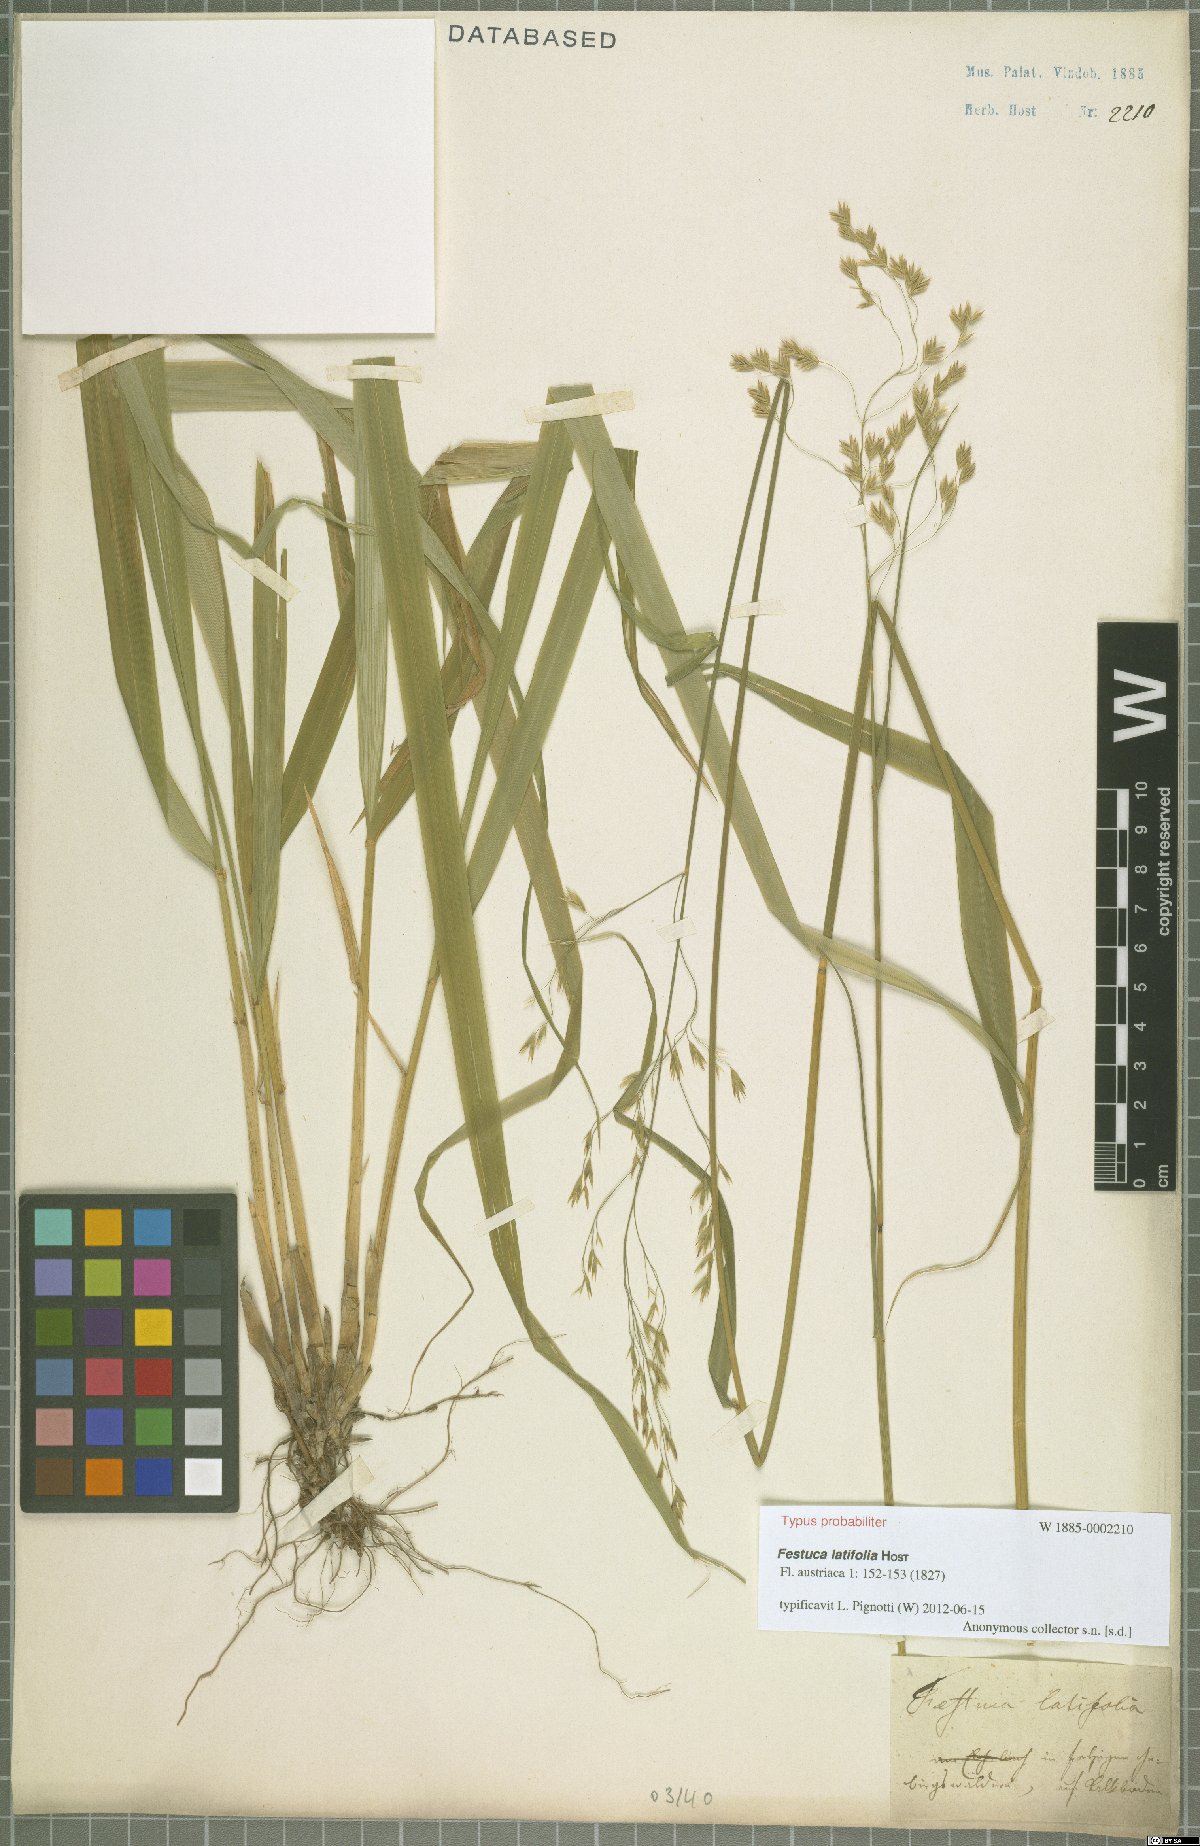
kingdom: Plantae
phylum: Tracheophyta
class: Liliopsida
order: Poales
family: Poaceae
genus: Festuca
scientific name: Festuca altissima
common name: Wood fescue
